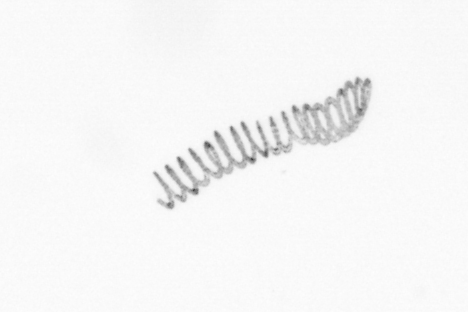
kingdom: Chromista
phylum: Ochrophyta
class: Bacillariophyceae
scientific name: Bacillariophyceae
